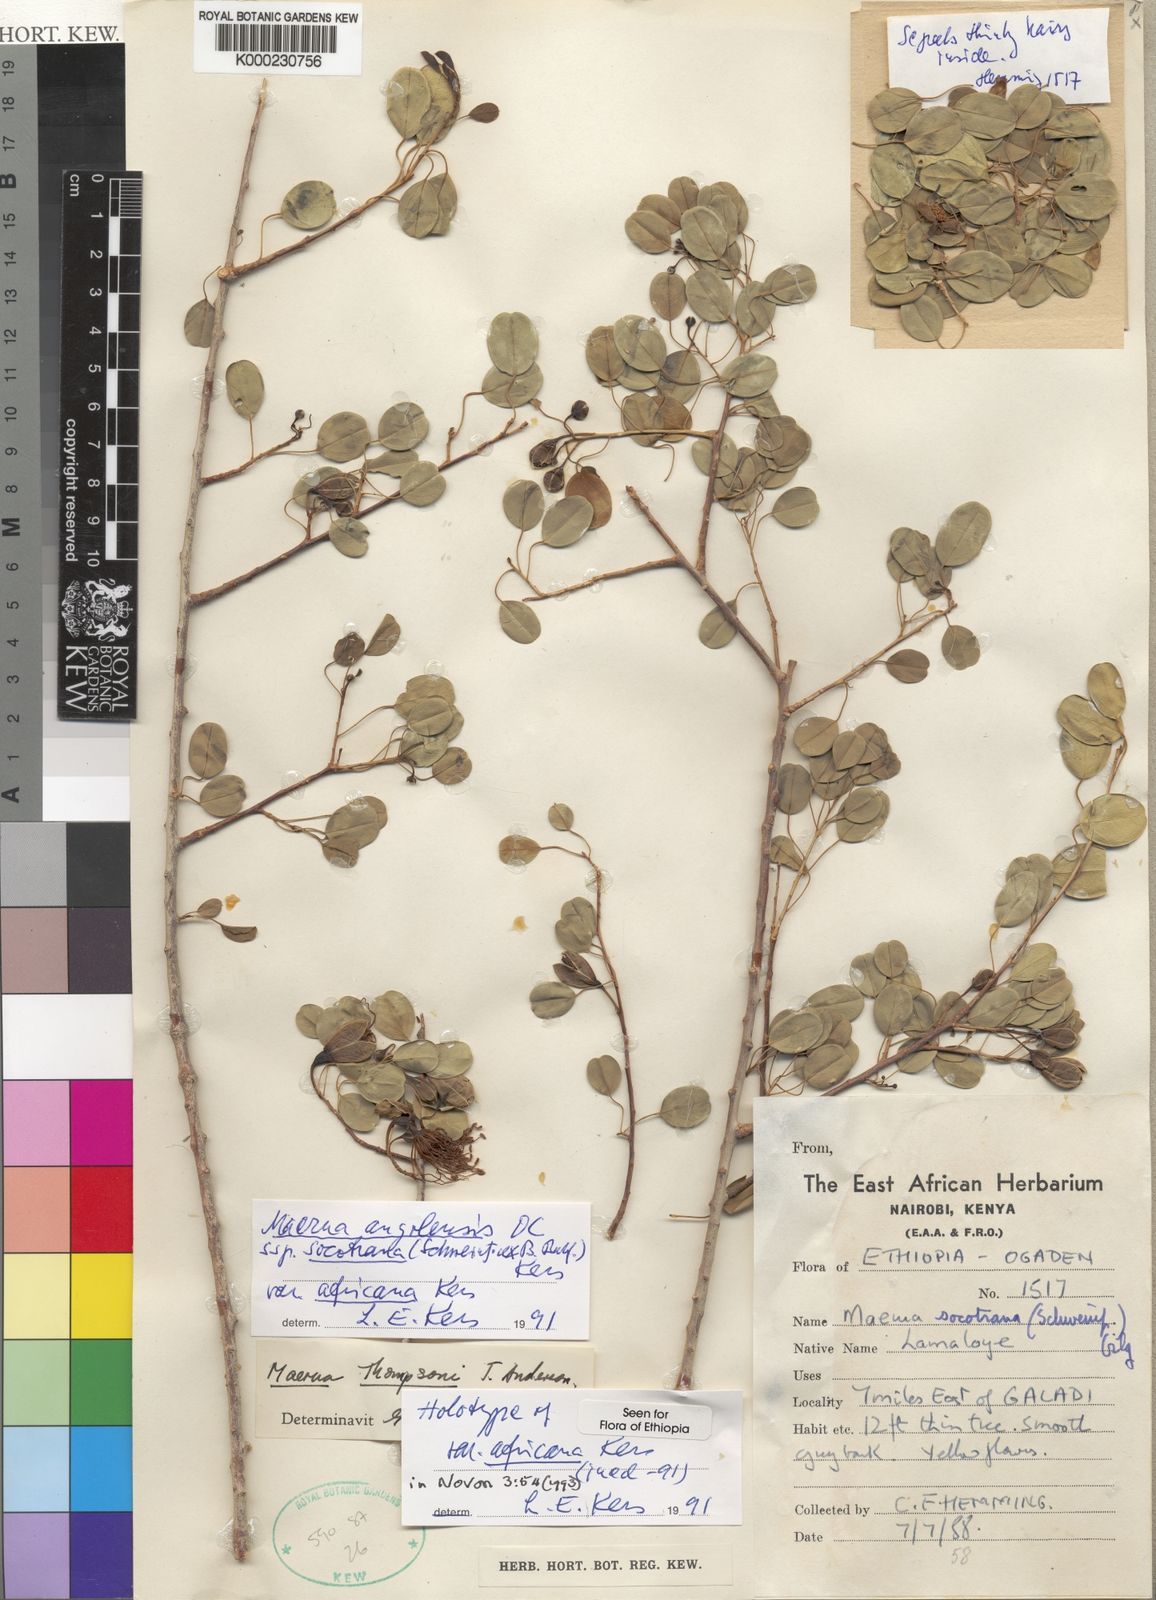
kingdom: Plantae
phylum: Tracheophyta
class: Magnoliopsida
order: Brassicales
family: Capparaceae
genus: Maerua
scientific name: Maerua angolensis
